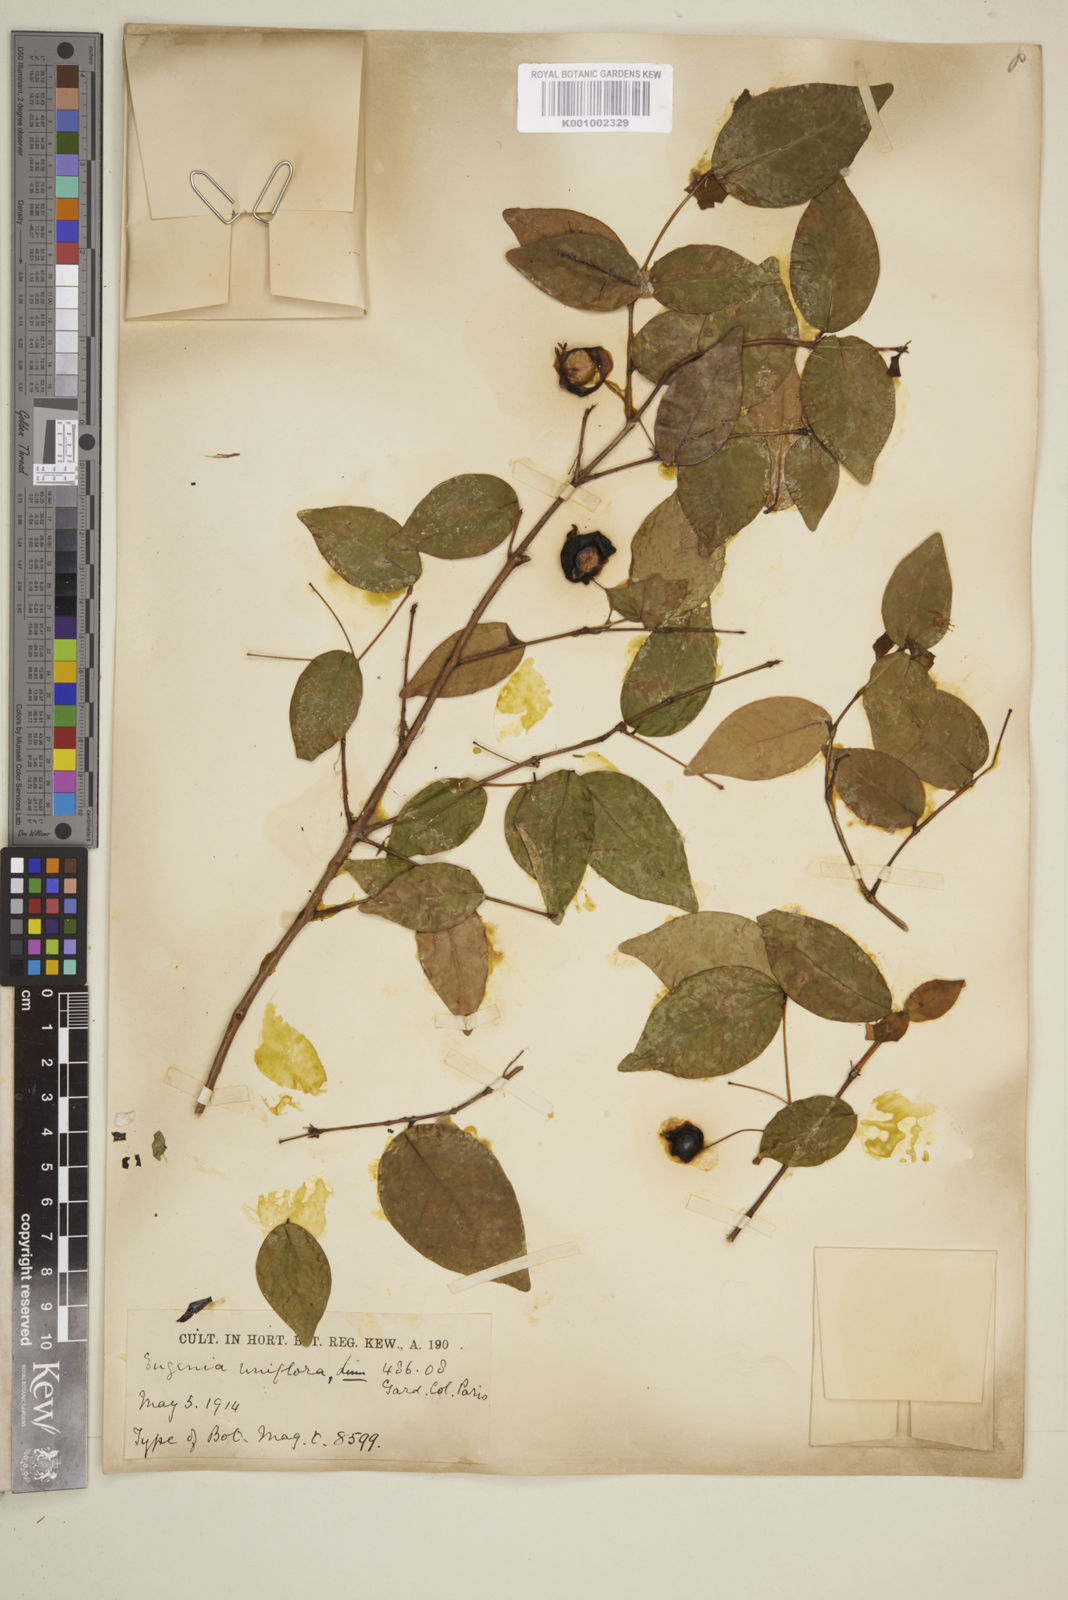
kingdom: Plantae
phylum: Tracheophyta
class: Magnoliopsida
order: Myrtales
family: Myrtaceae
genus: Eugenia
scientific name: Eugenia uniflora
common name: Surinam cherry
